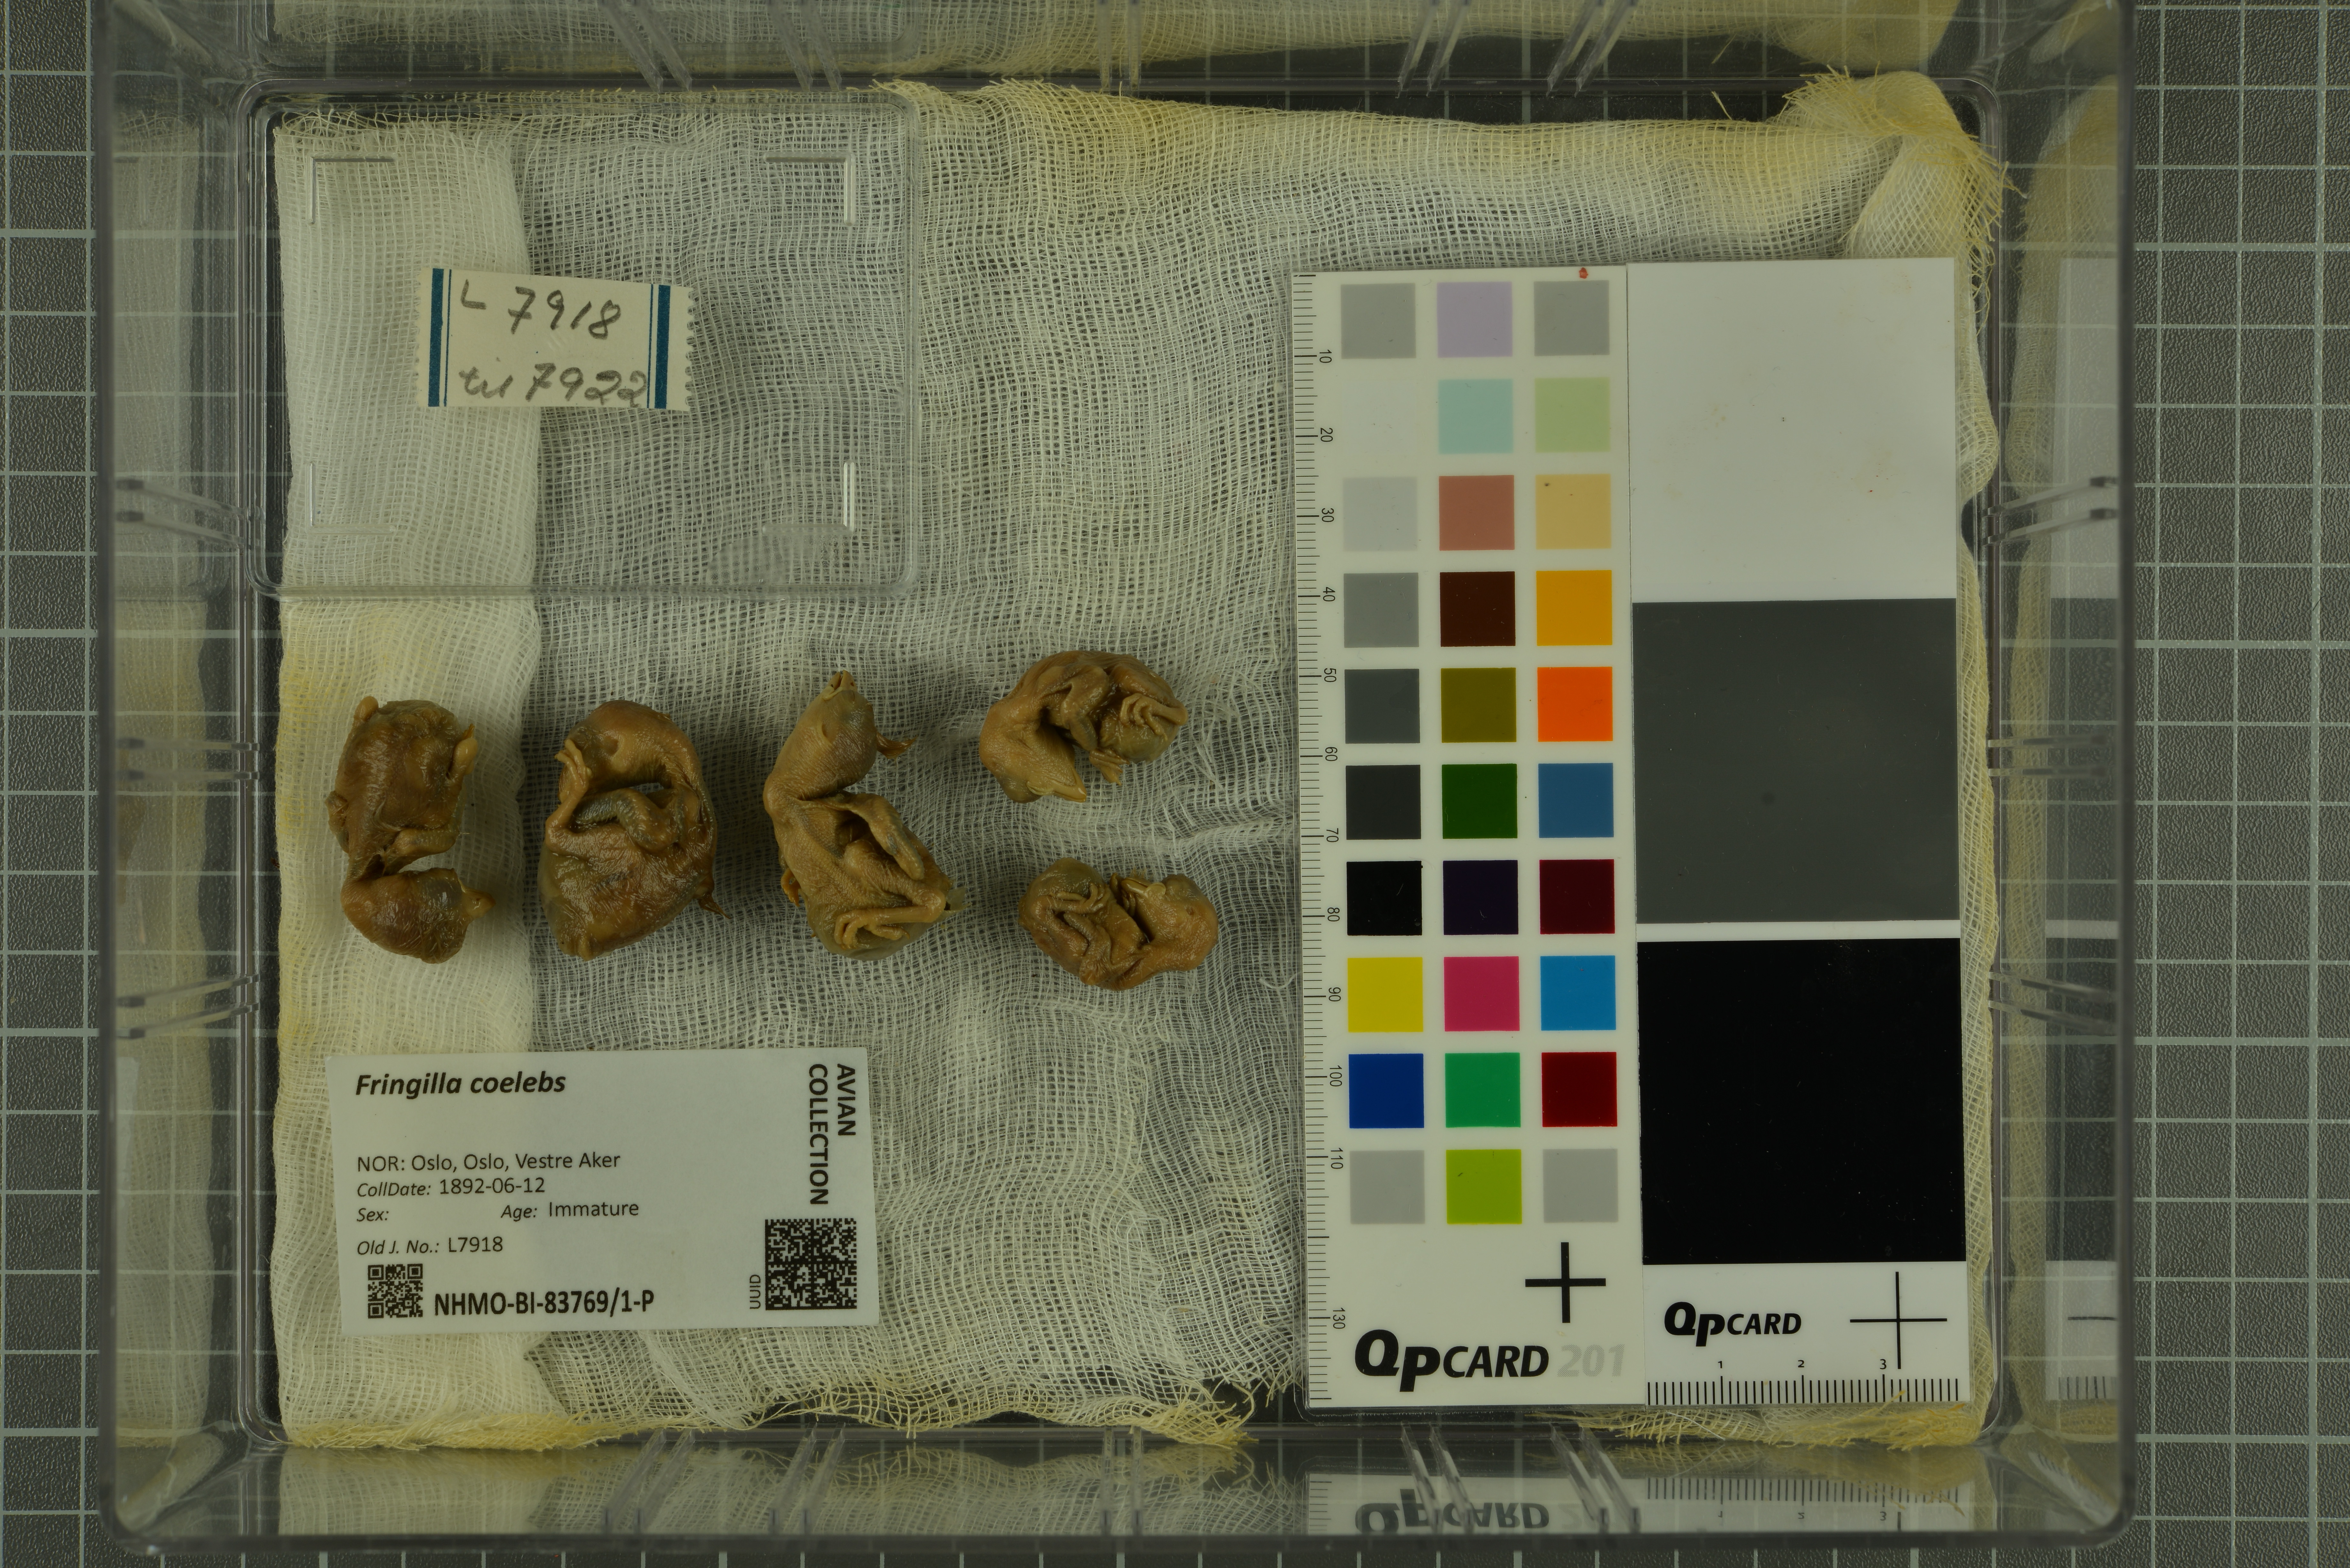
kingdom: Animalia
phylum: Chordata
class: Aves
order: Passeriformes
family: Fringillidae
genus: Fringilla
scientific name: Fringilla coelebs
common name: Common chaffinch
